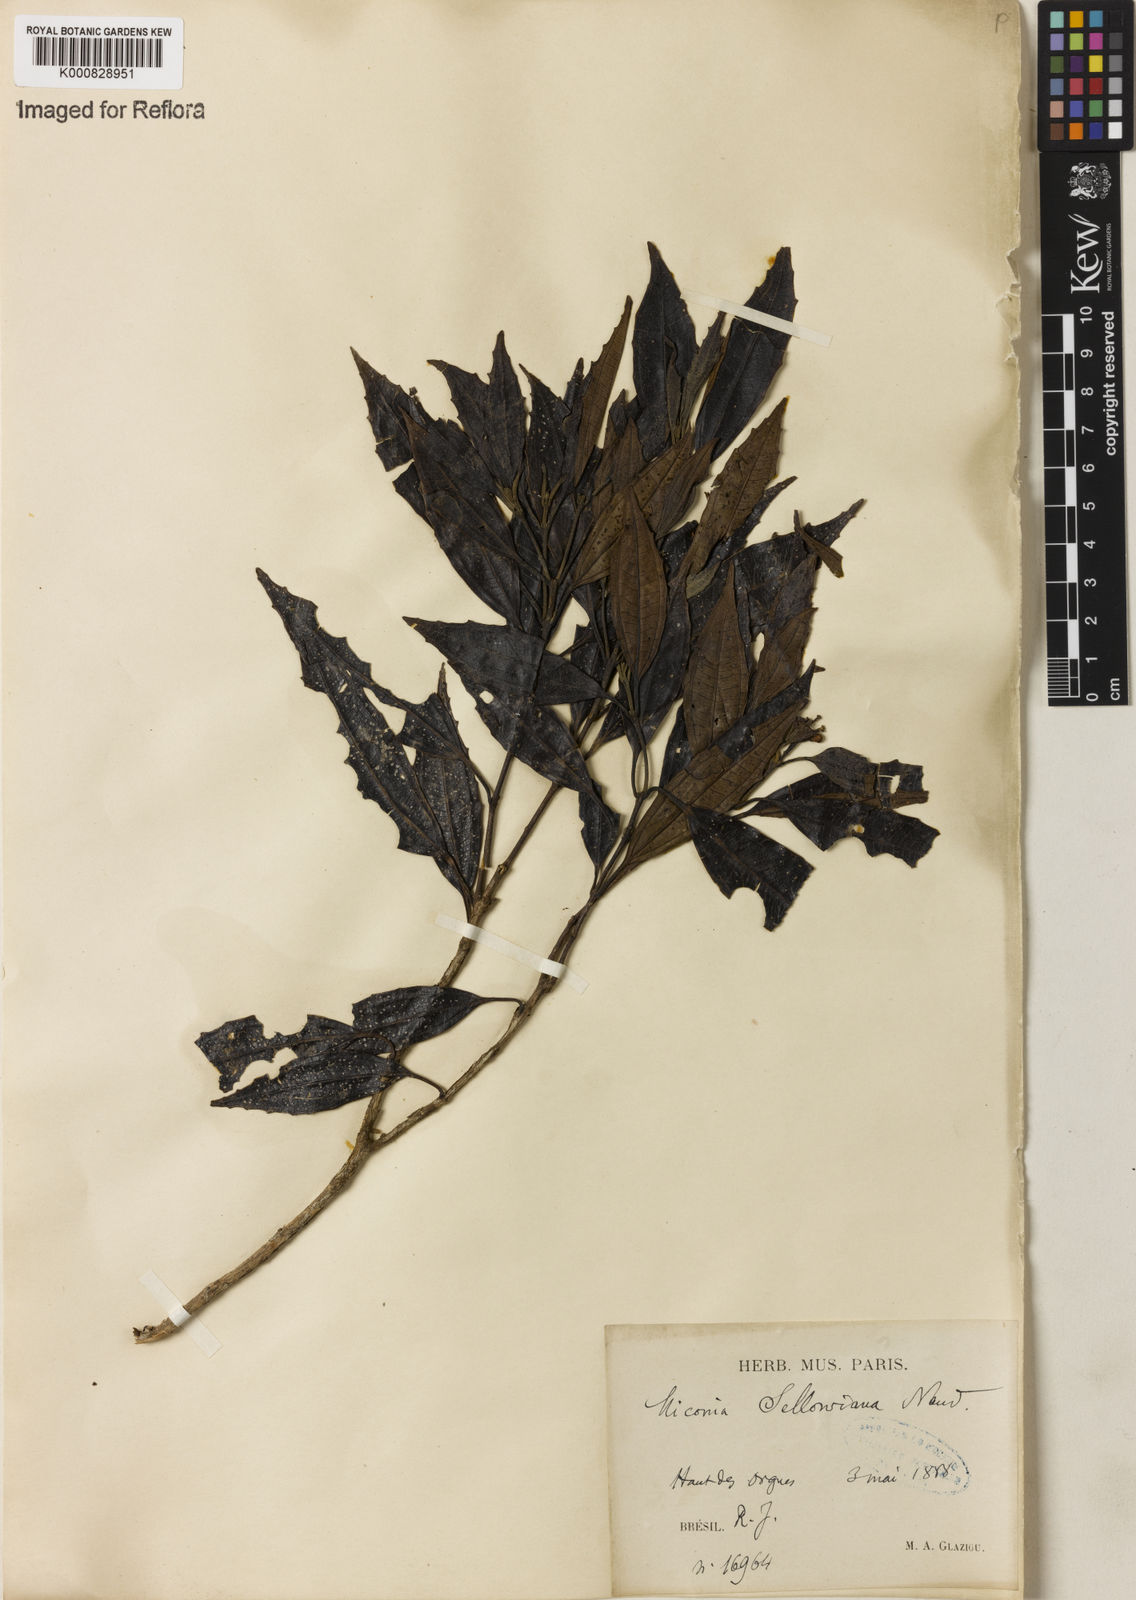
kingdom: Plantae
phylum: Tracheophyta
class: Magnoliopsida
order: Myrtales
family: Melastomataceae
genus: Miconia
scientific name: Miconia sellowiana
